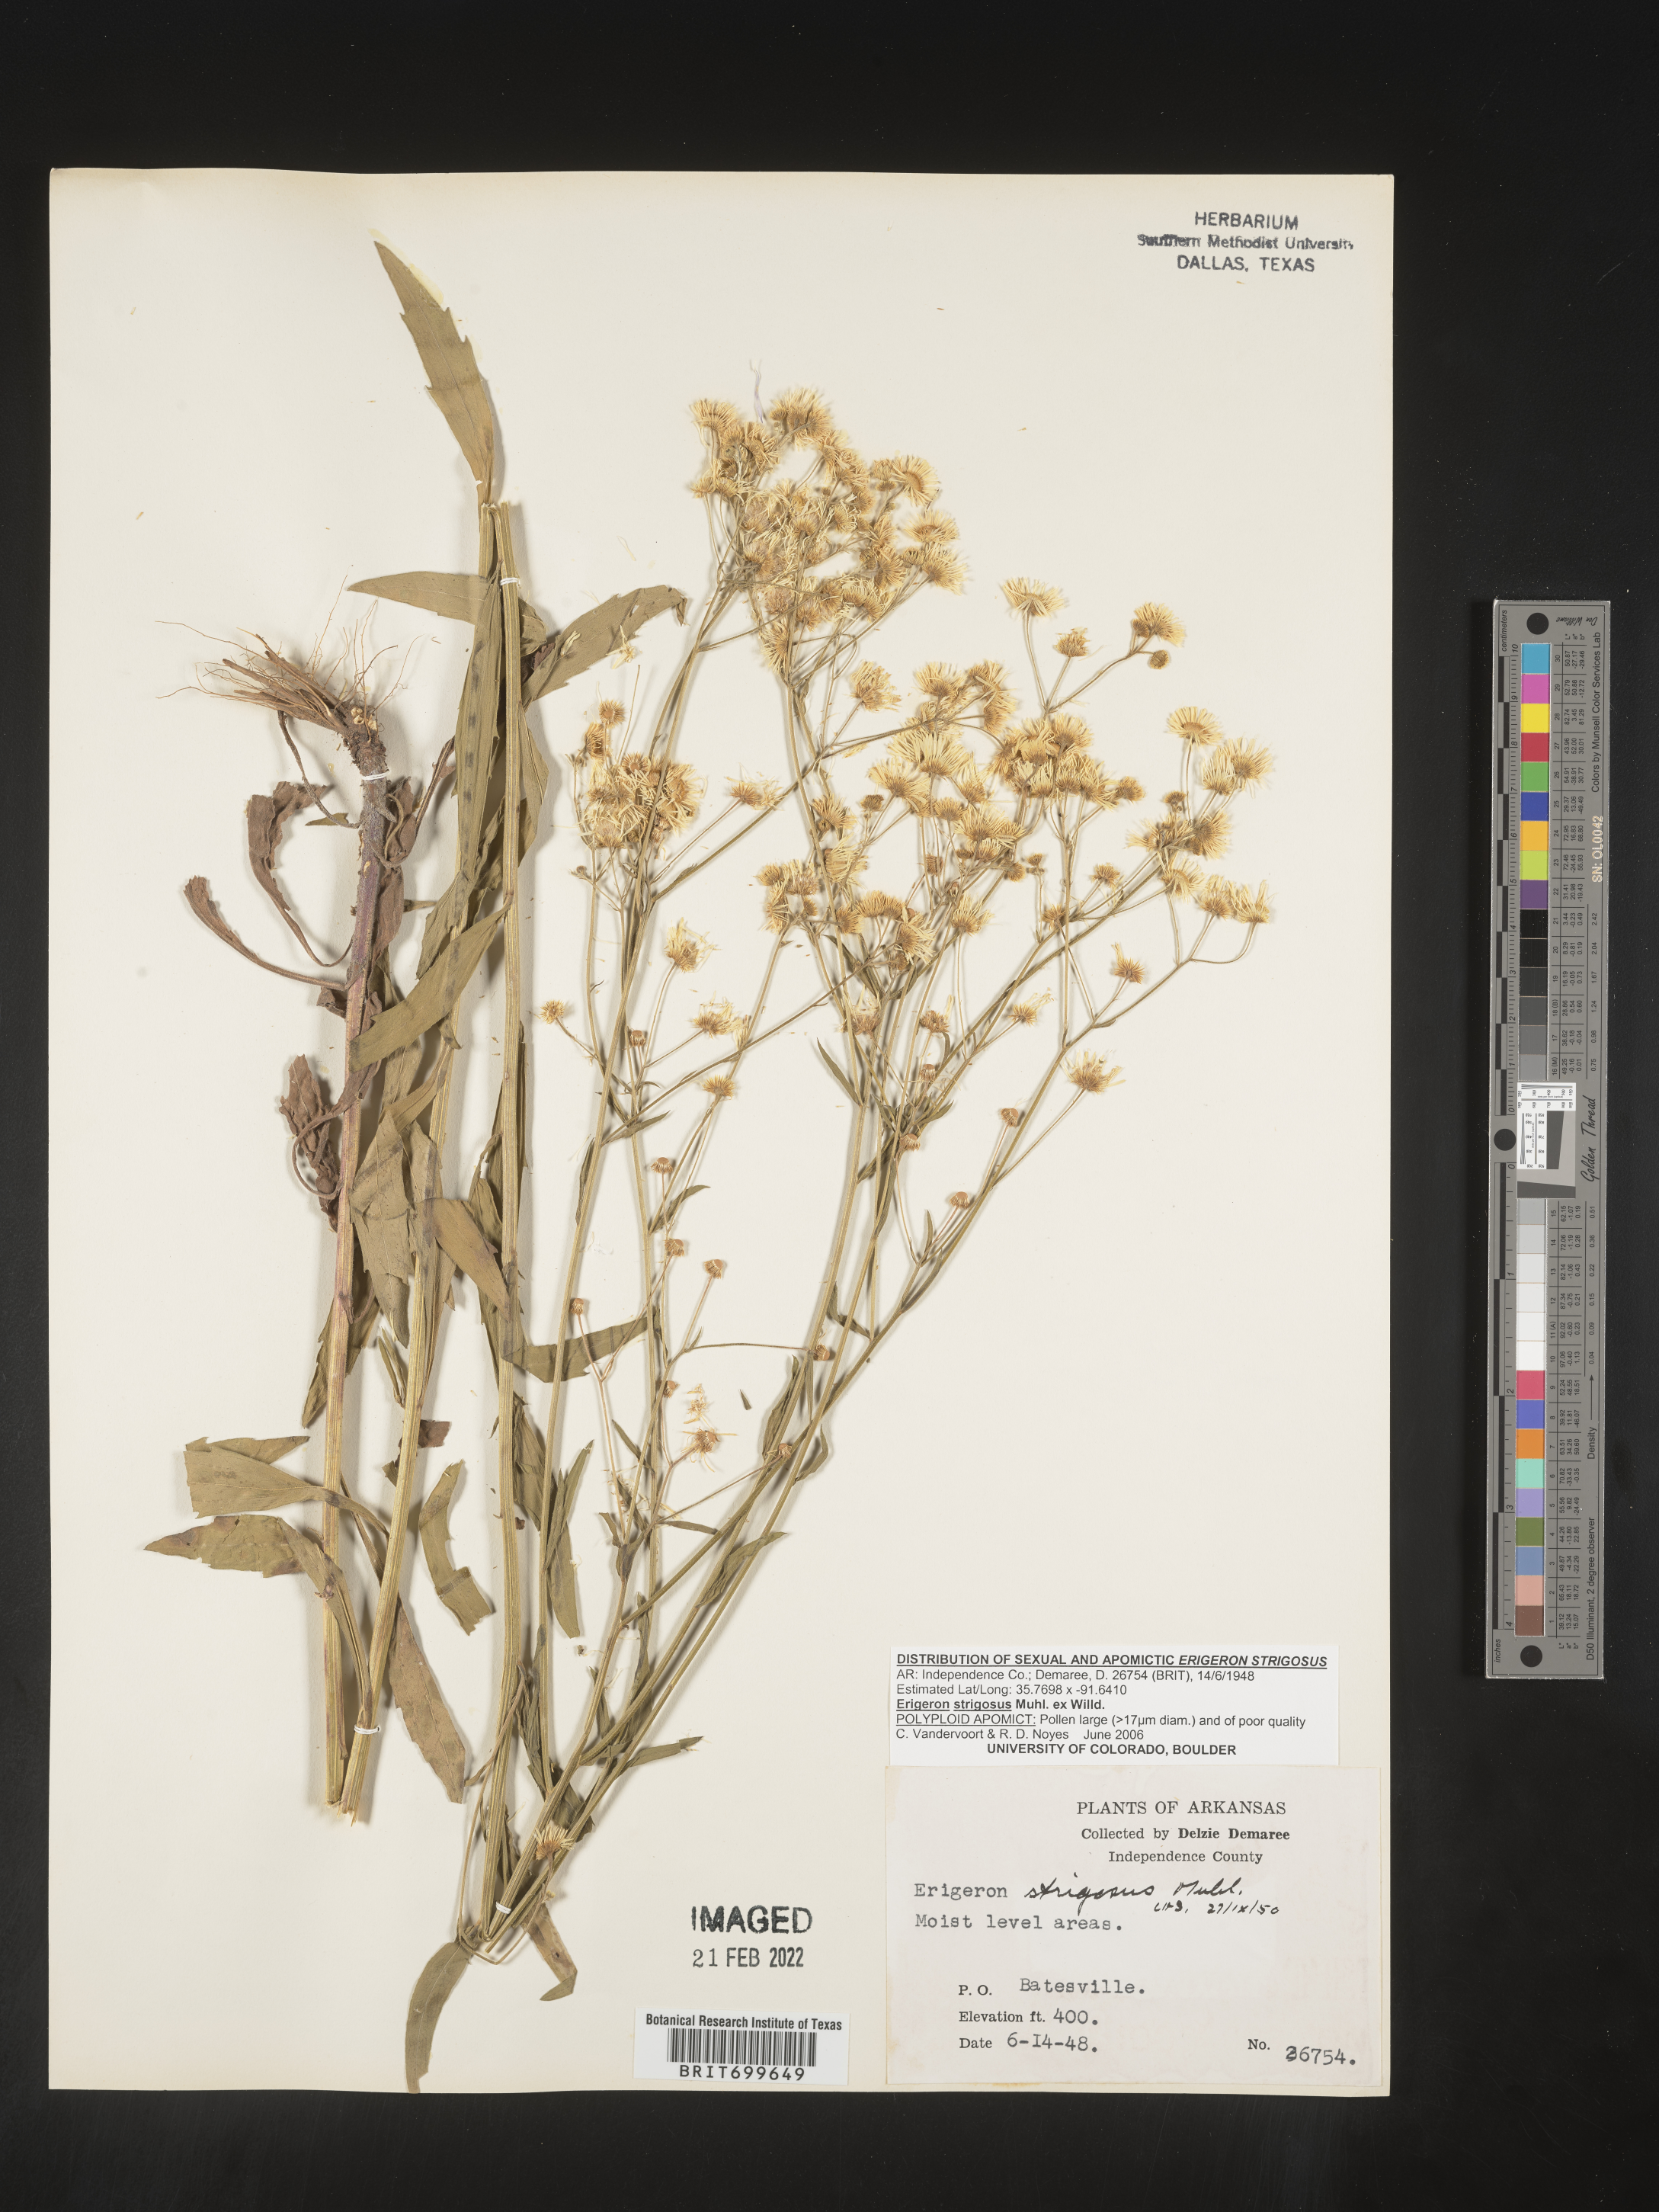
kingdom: Plantae
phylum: Tracheophyta
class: Magnoliopsida
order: Asterales
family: Asteraceae
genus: Erigeron
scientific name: Erigeron strigosus
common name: Common eastern fleabane
